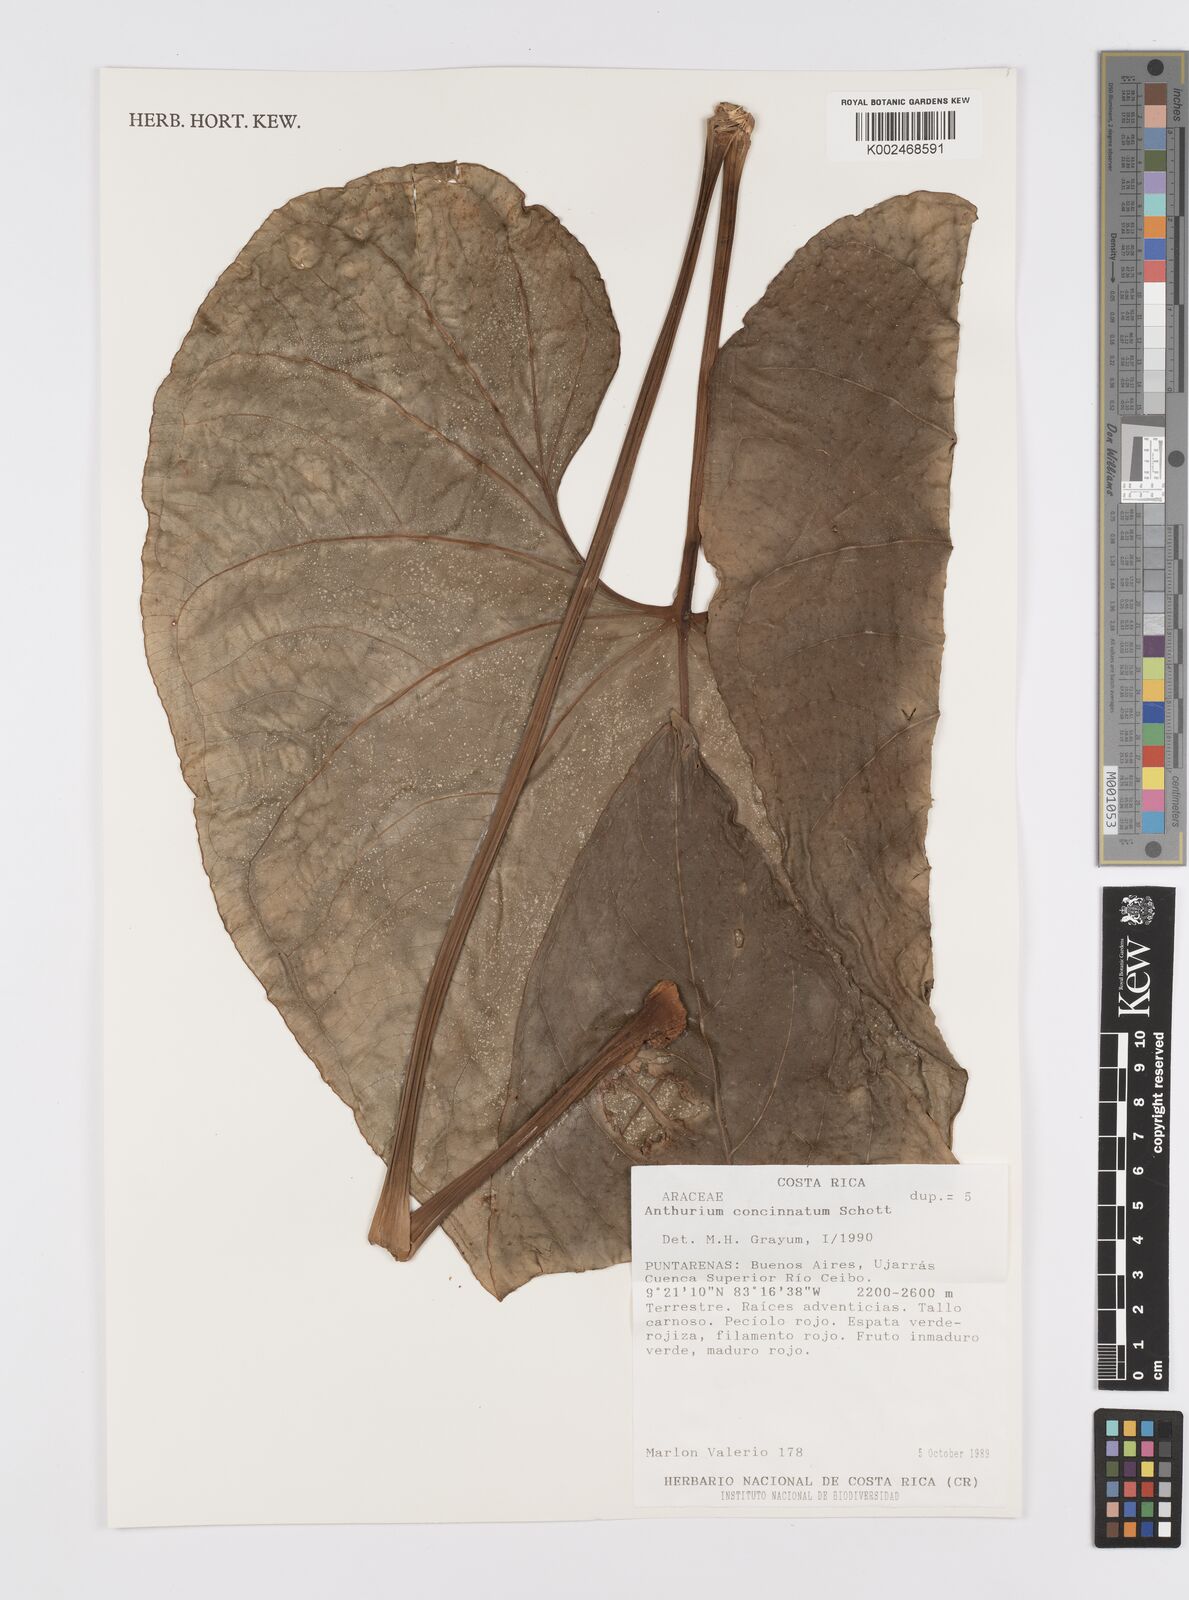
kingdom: Plantae
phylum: Tracheophyta
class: Liliopsida
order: Alismatales
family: Araceae
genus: Anthurium
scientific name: Anthurium concinnatum
